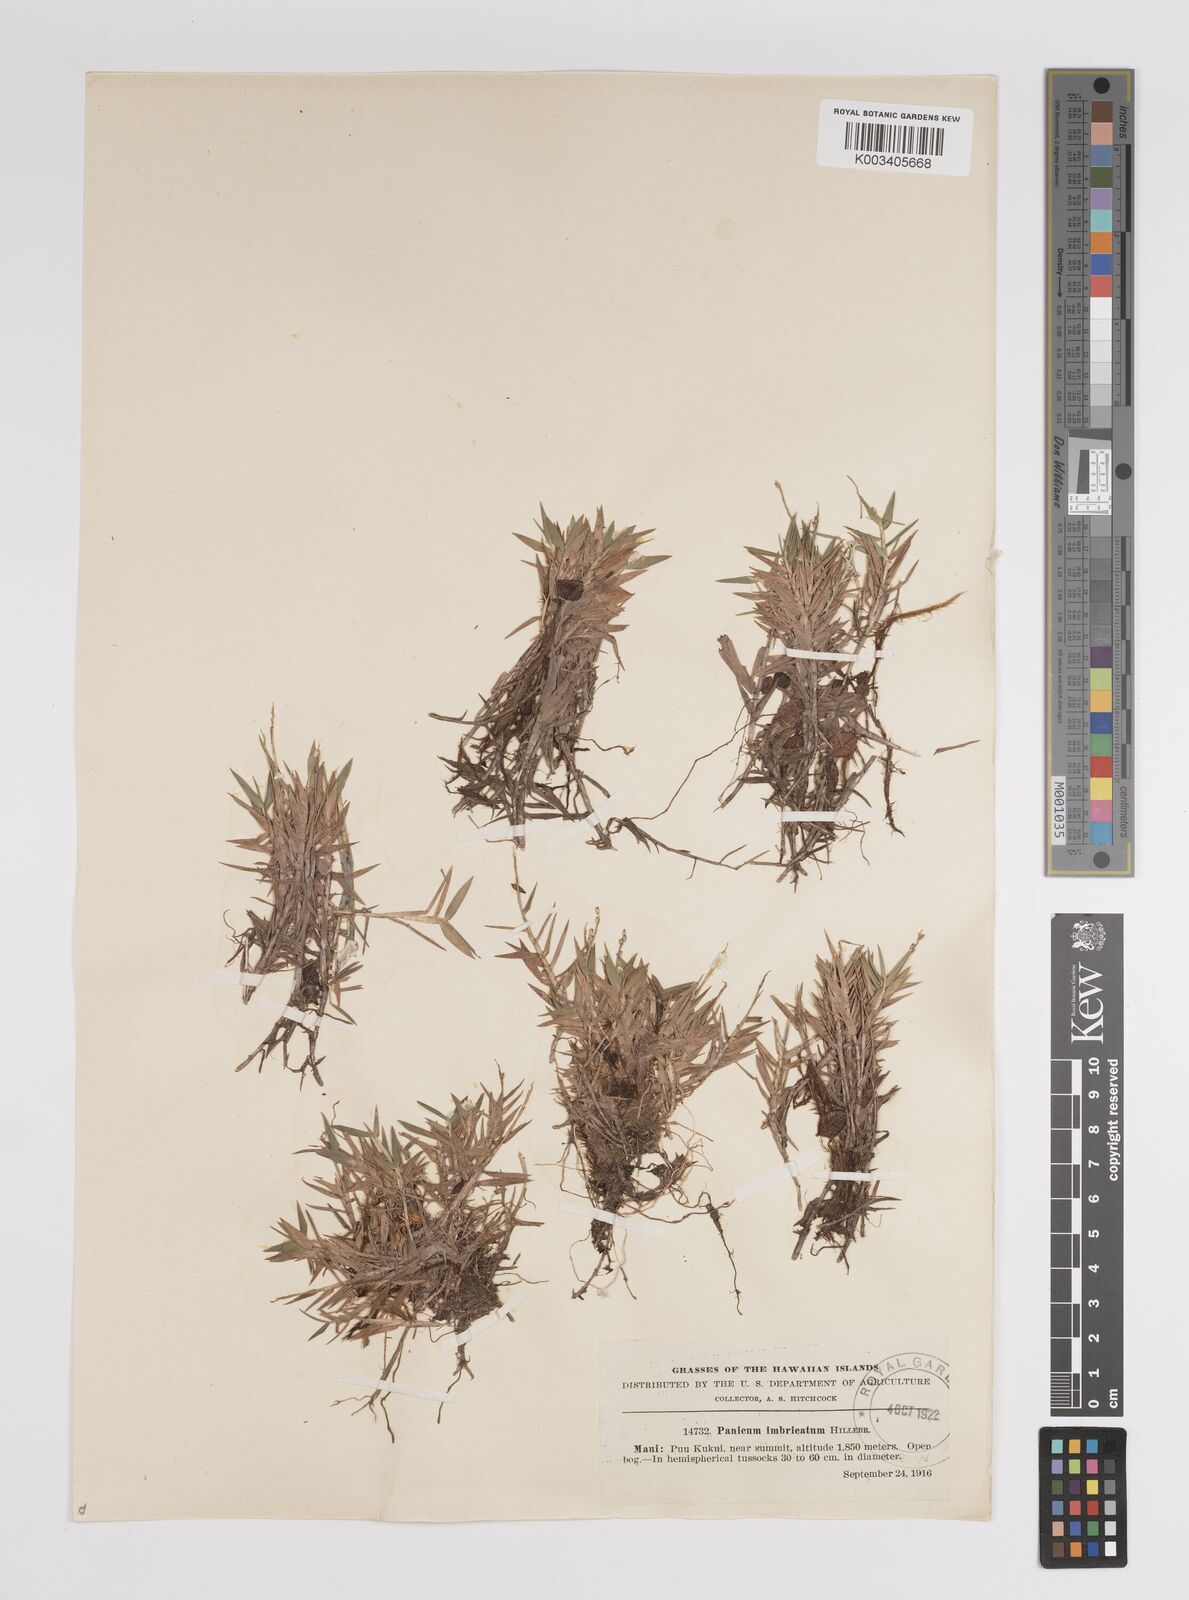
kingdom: Plantae
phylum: Tracheophyta
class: Liliopsida
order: Poales
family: Poaceae
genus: Dichanthelium
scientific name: Dichanthelium hillebrandianum
